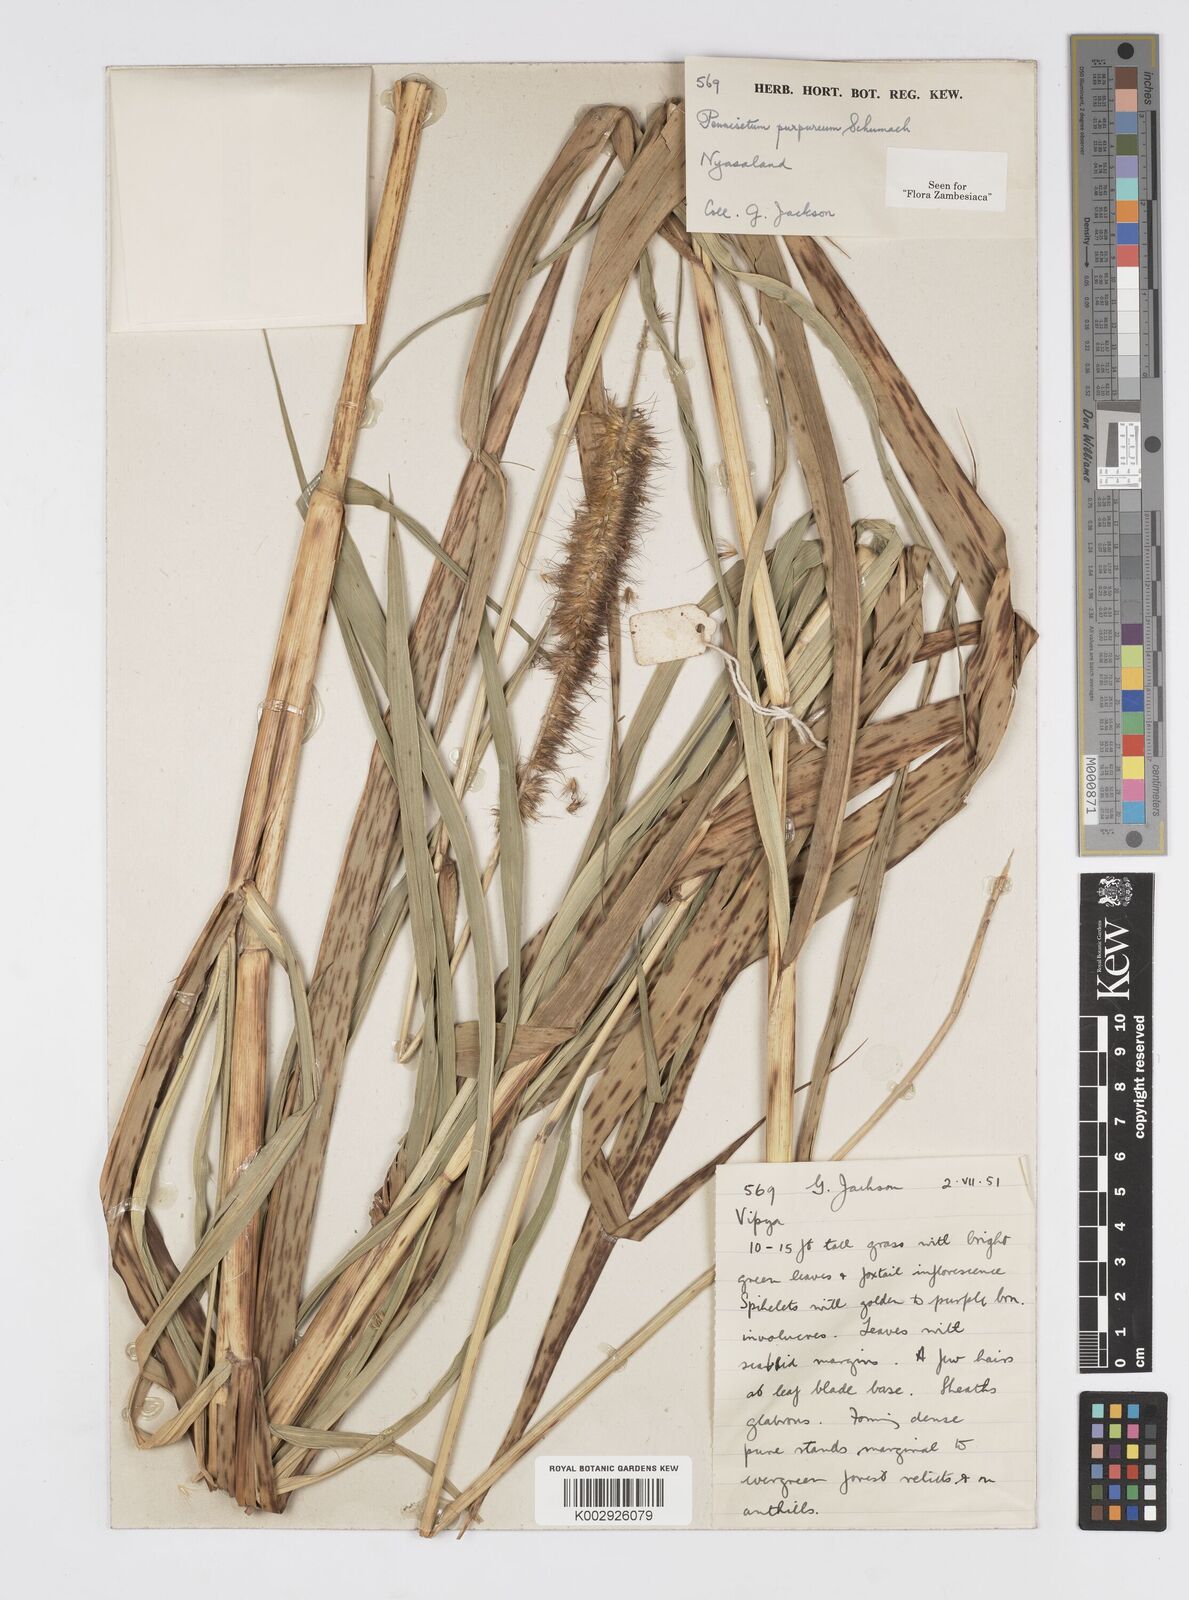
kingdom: Plantae
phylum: Tracheophyta
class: Liliopsida
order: Poales
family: Poaceae
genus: Cenchrus
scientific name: Cenchrus purpureus
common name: Elephant grass
